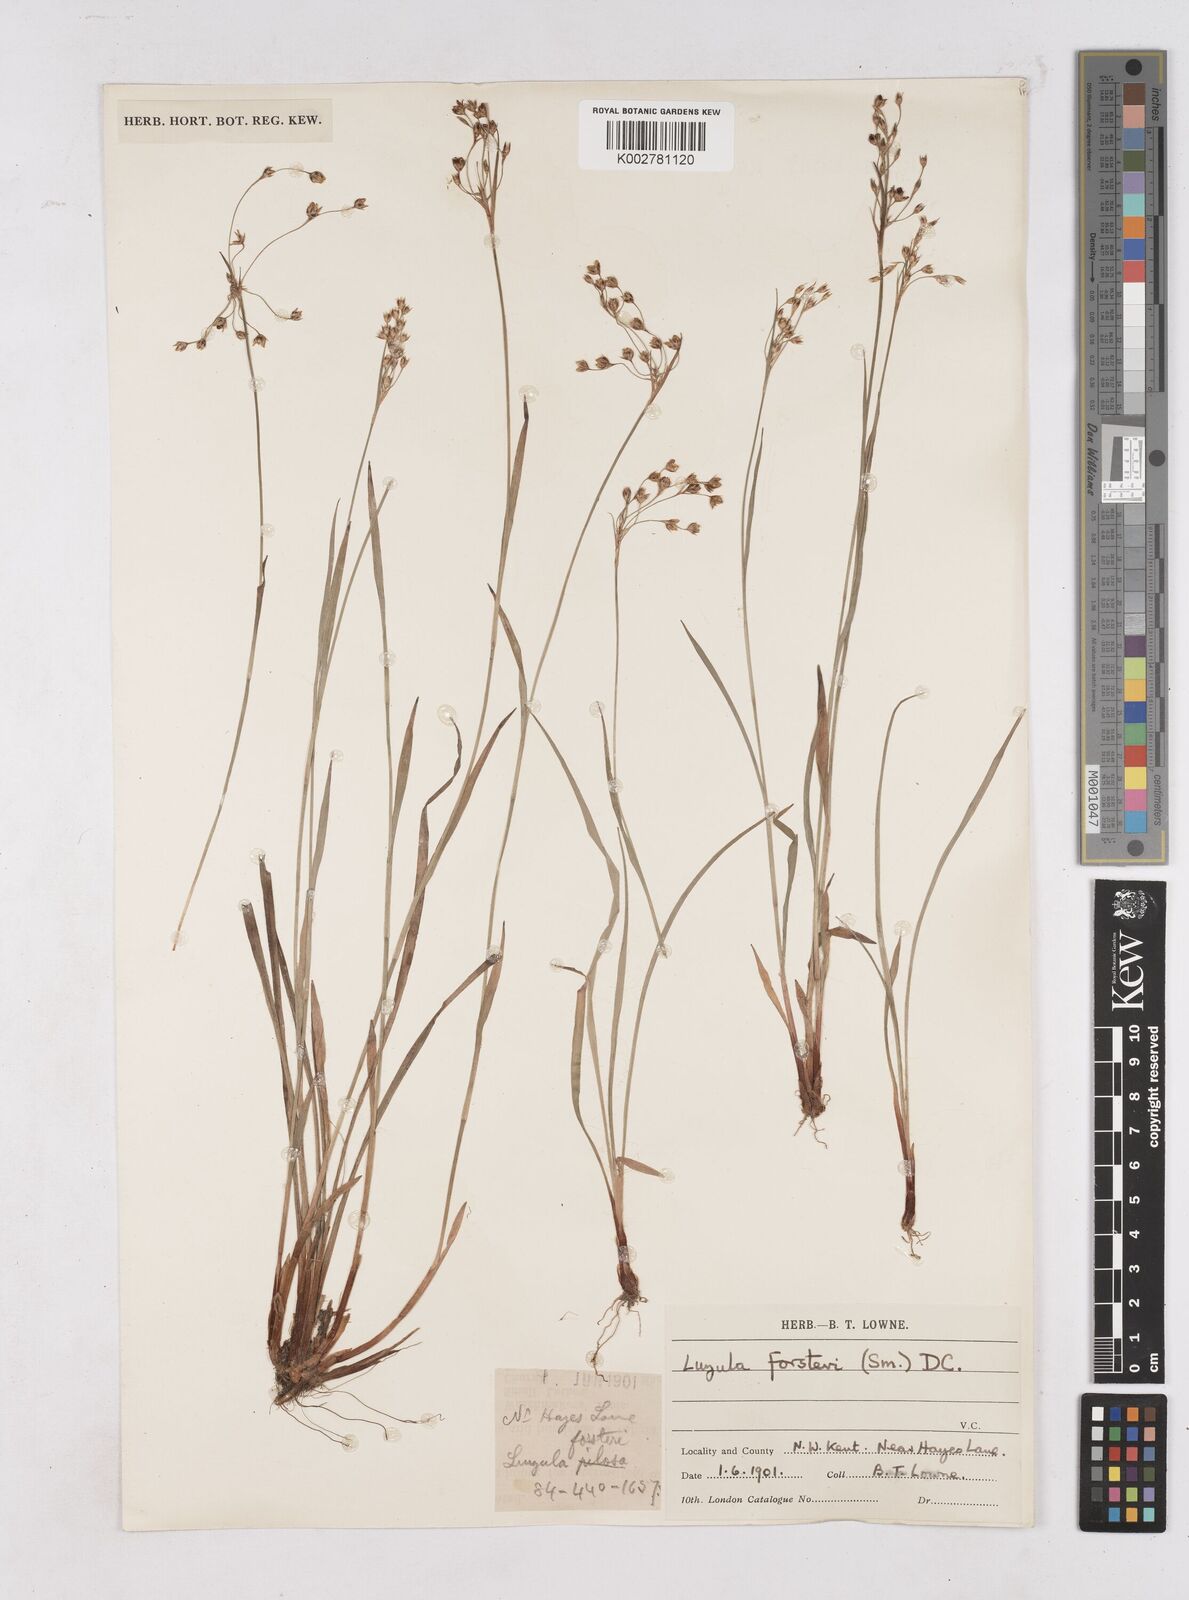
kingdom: Plantae
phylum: Tracheophyta
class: Liliopsida
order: Poales
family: Juncaceae
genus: Luzula
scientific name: Luzula forsteri
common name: Southern wood-rush
